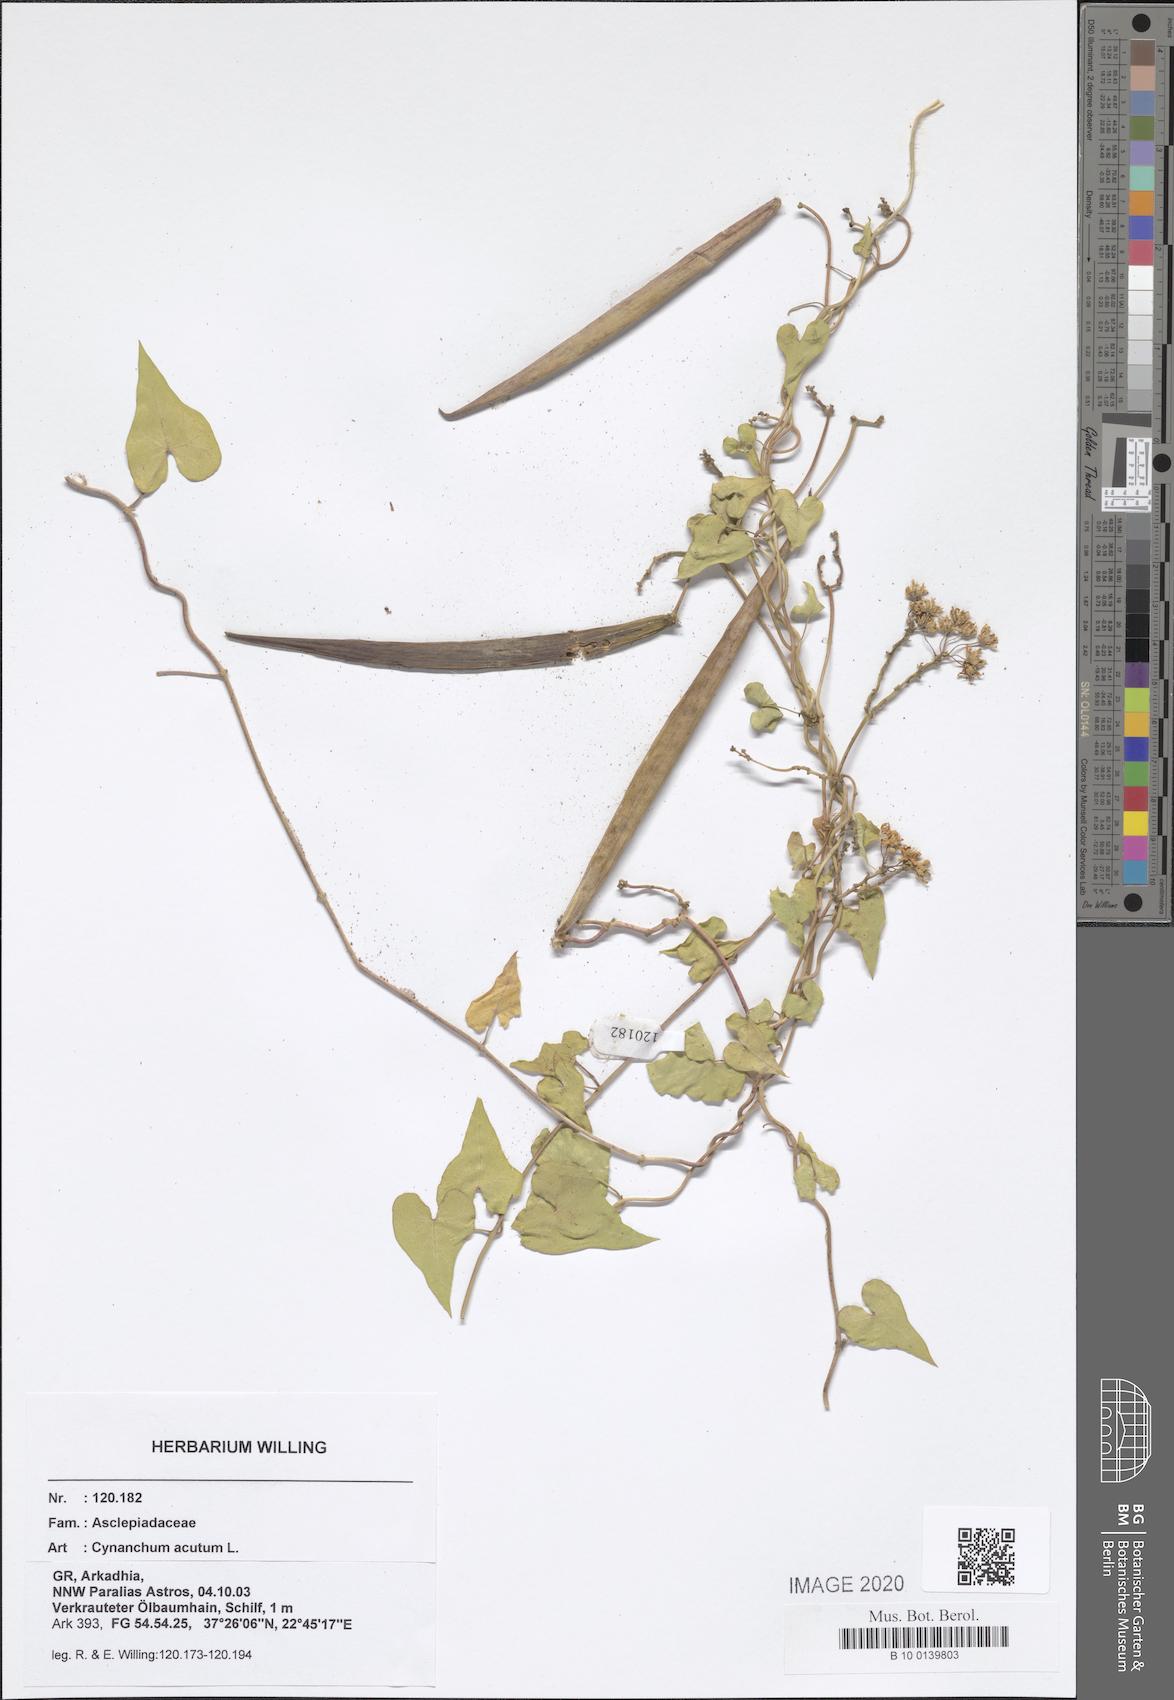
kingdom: Plantae
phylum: Tracheophyta
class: Magnoliopsida
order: Gentianales
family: Apocynaceae
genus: Cynanchum
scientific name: Cynanchum acutum
